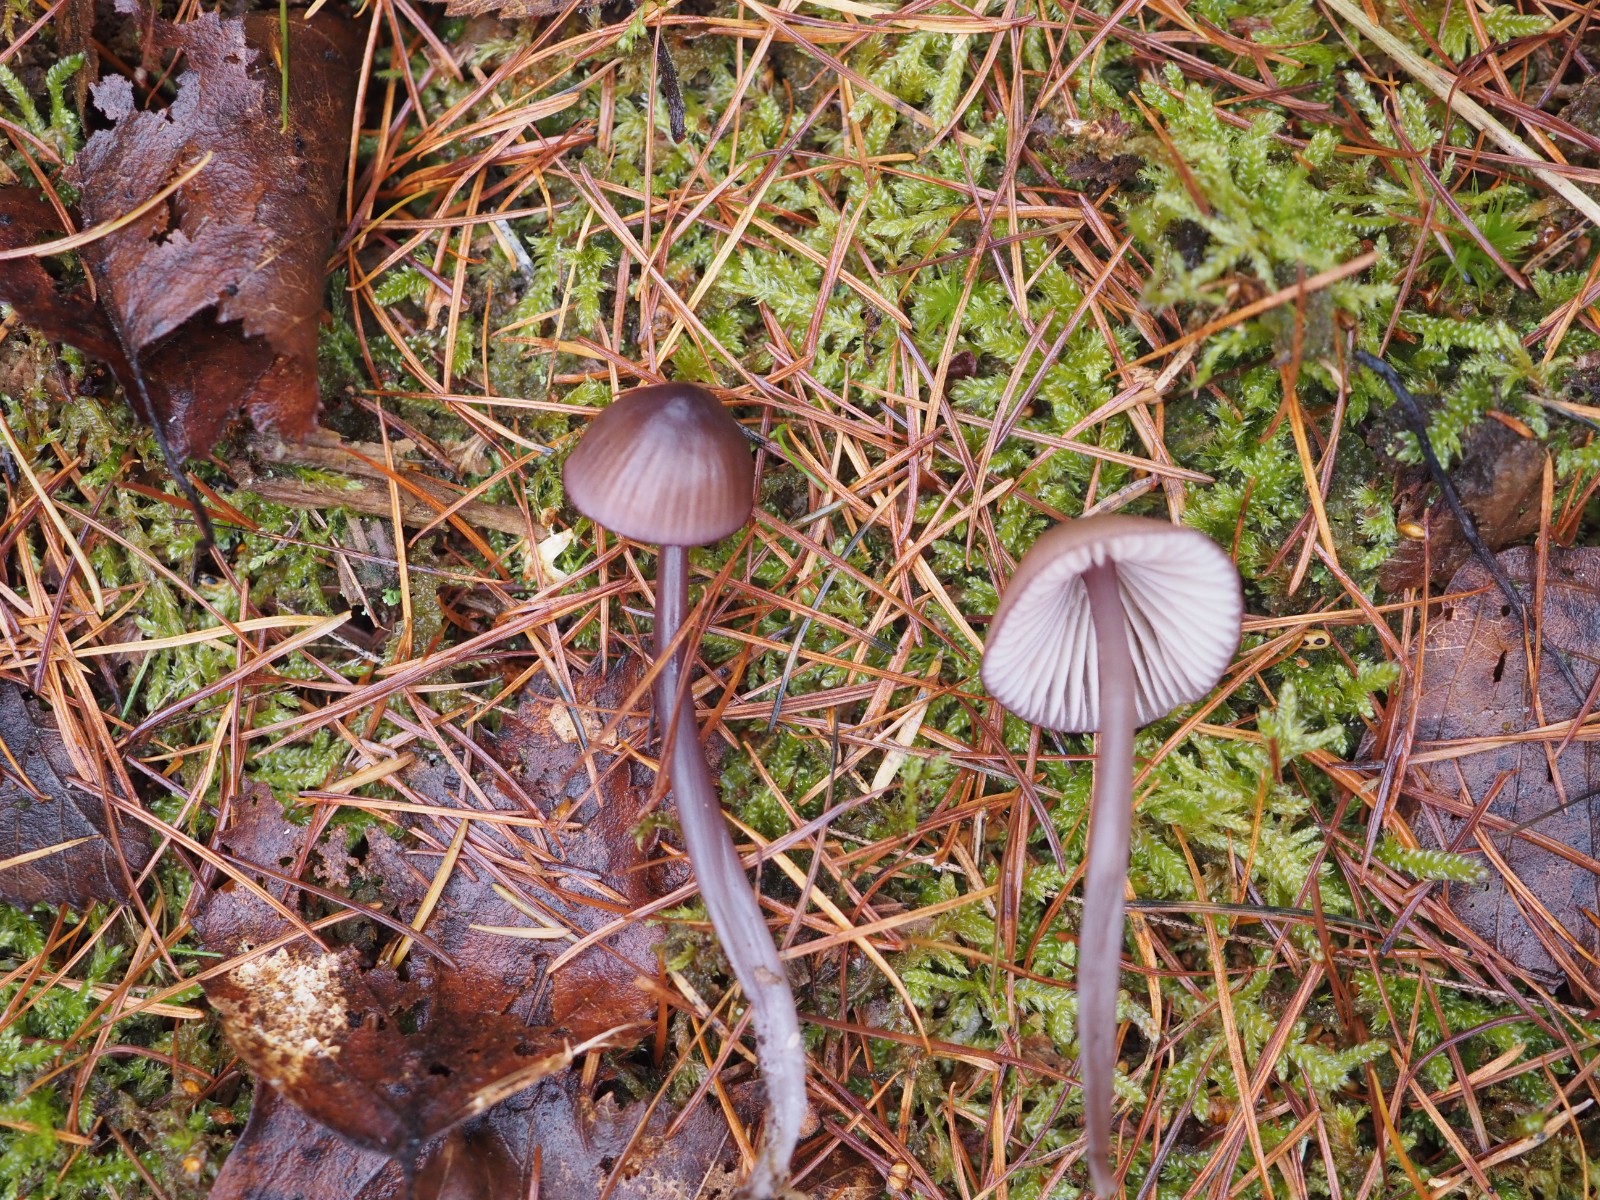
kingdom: Fungi
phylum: Basidiomycota
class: Agaricomycetes
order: Agaricales
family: Mycenaceae
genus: Mycena
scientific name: Mycena purpureofusca
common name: purpur-huesvamp
